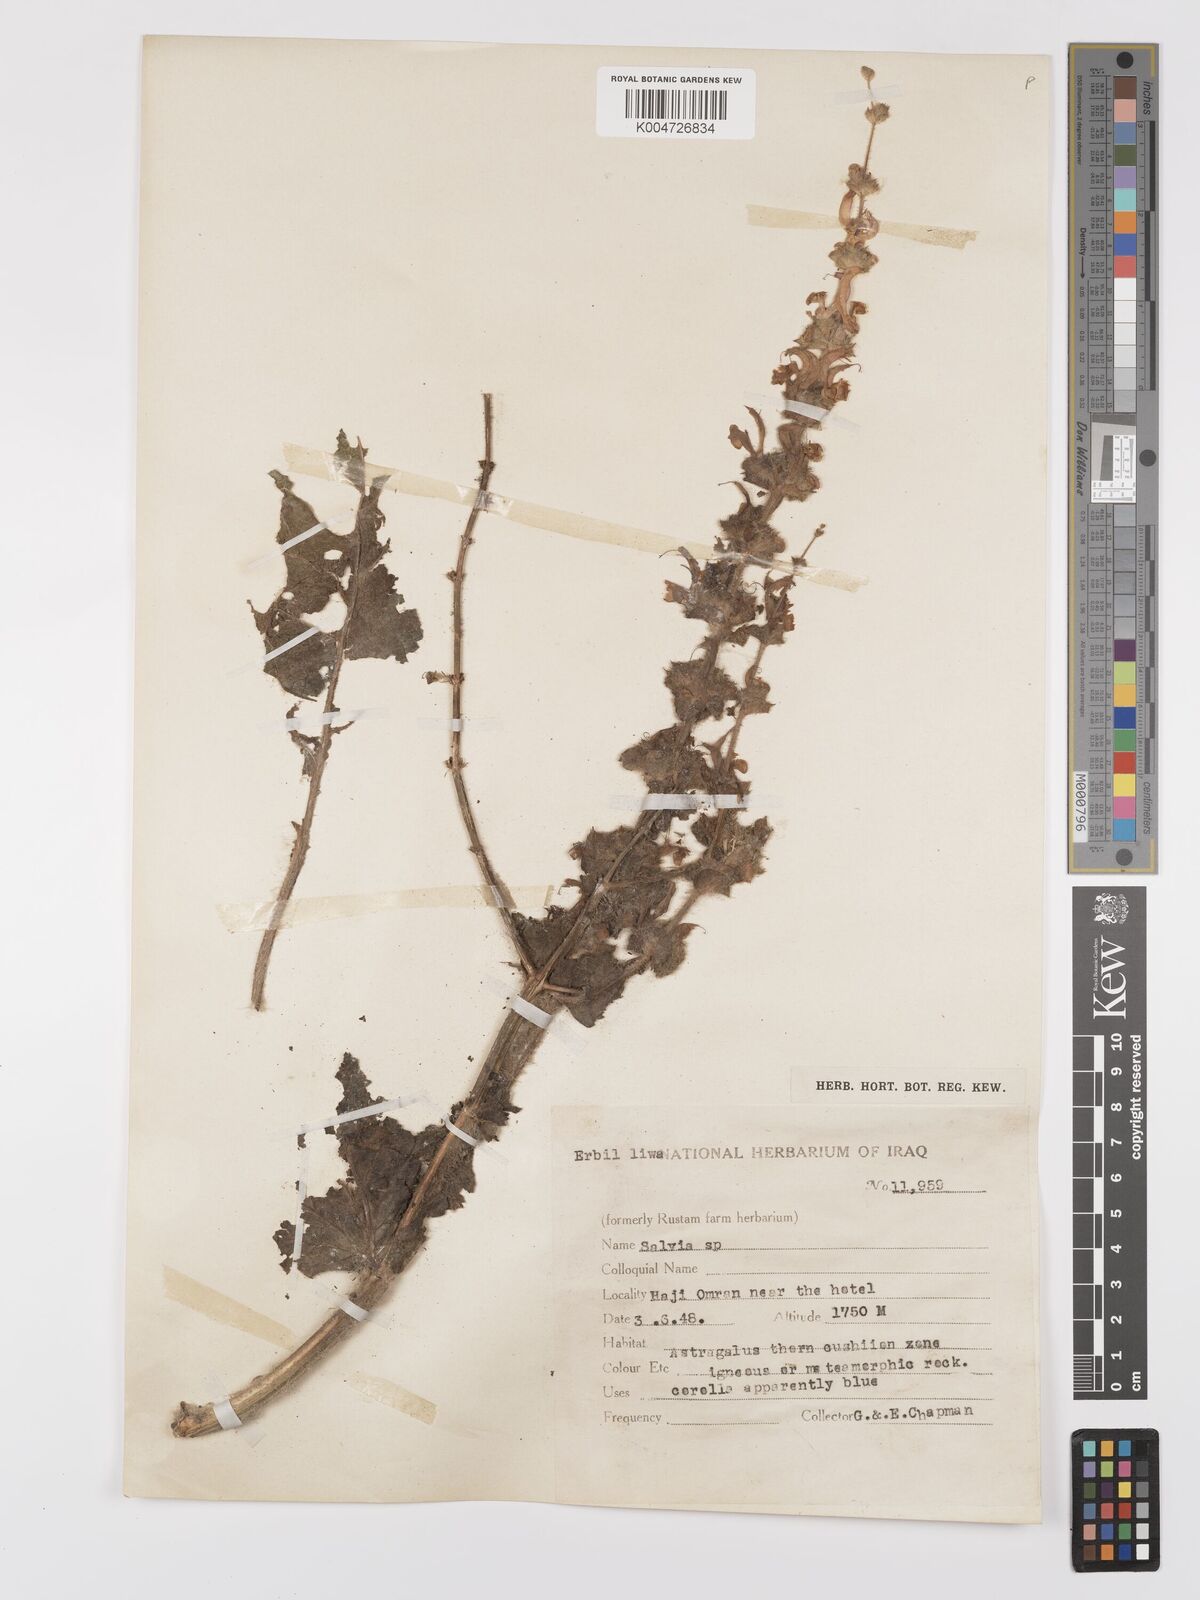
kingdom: Plantae
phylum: Tracheophyta
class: Magnoliopsida
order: Lamiales
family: Lamiaceae
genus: Salvia
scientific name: Salvia
